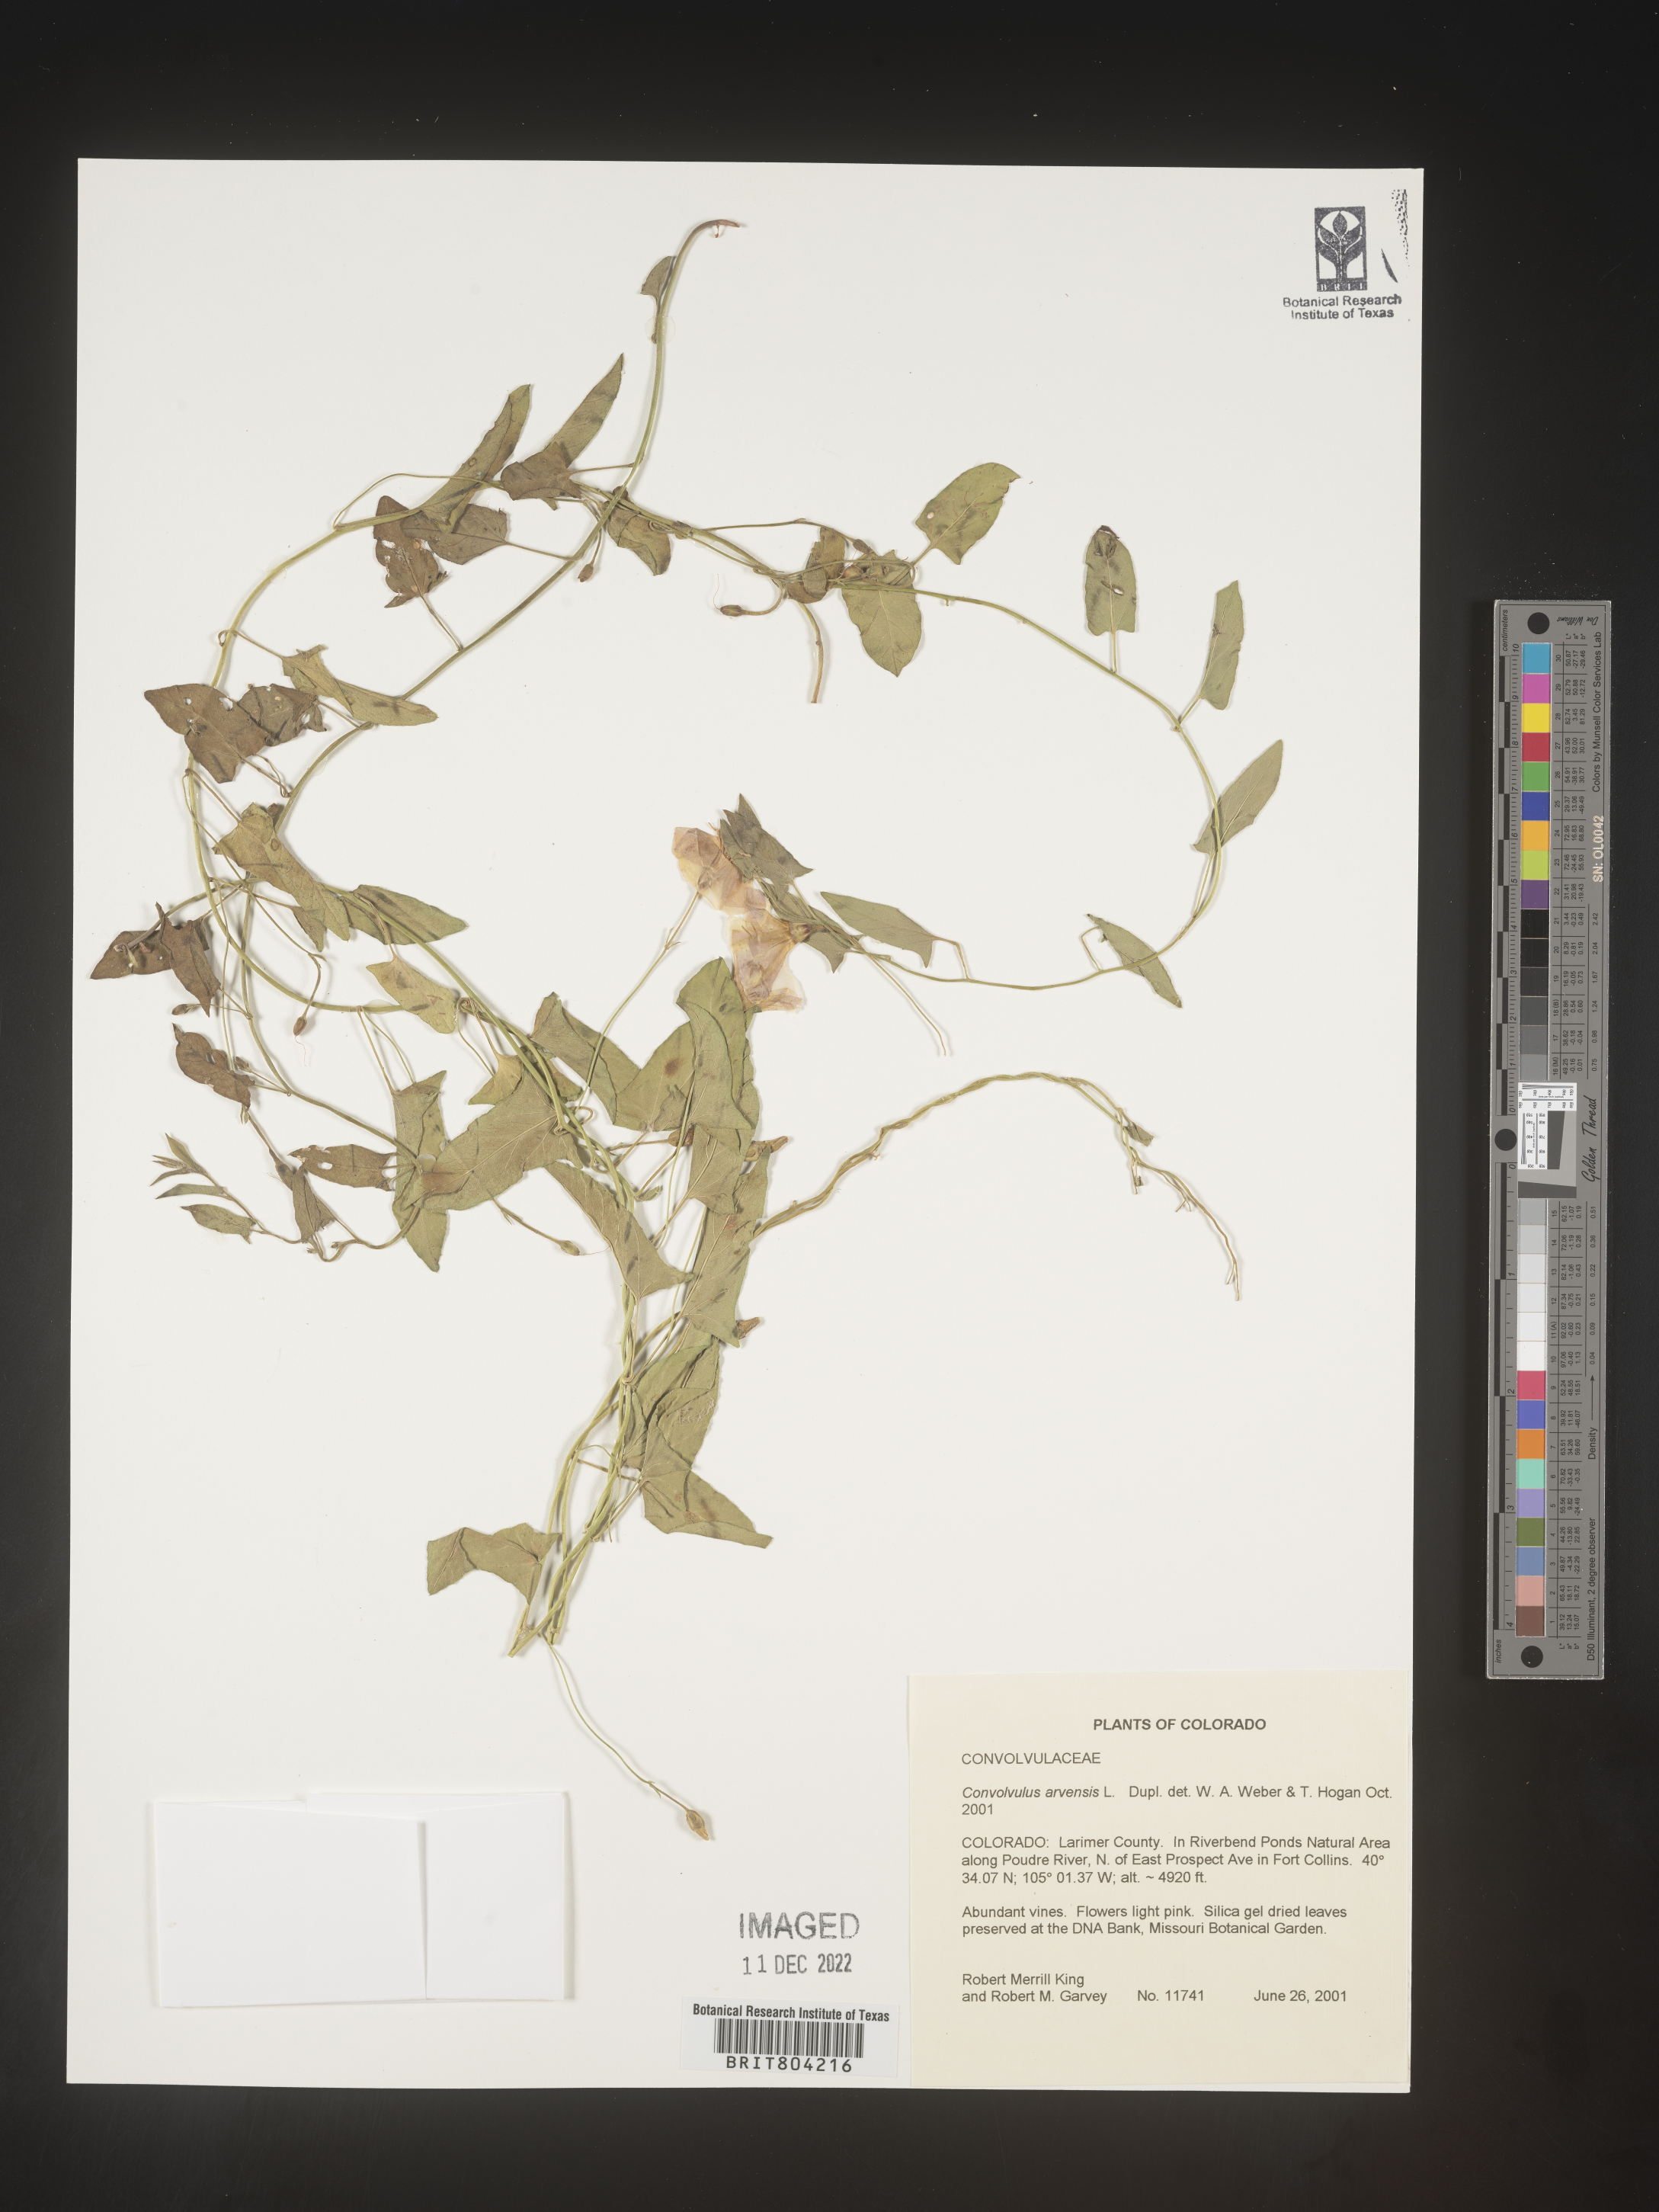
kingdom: Plantae
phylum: Tracheophyta
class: Magnoliopsida
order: Solanales
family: Convolvulaceae
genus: Convolvulus
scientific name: Convolvulus arvensis
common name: Field bindweed
